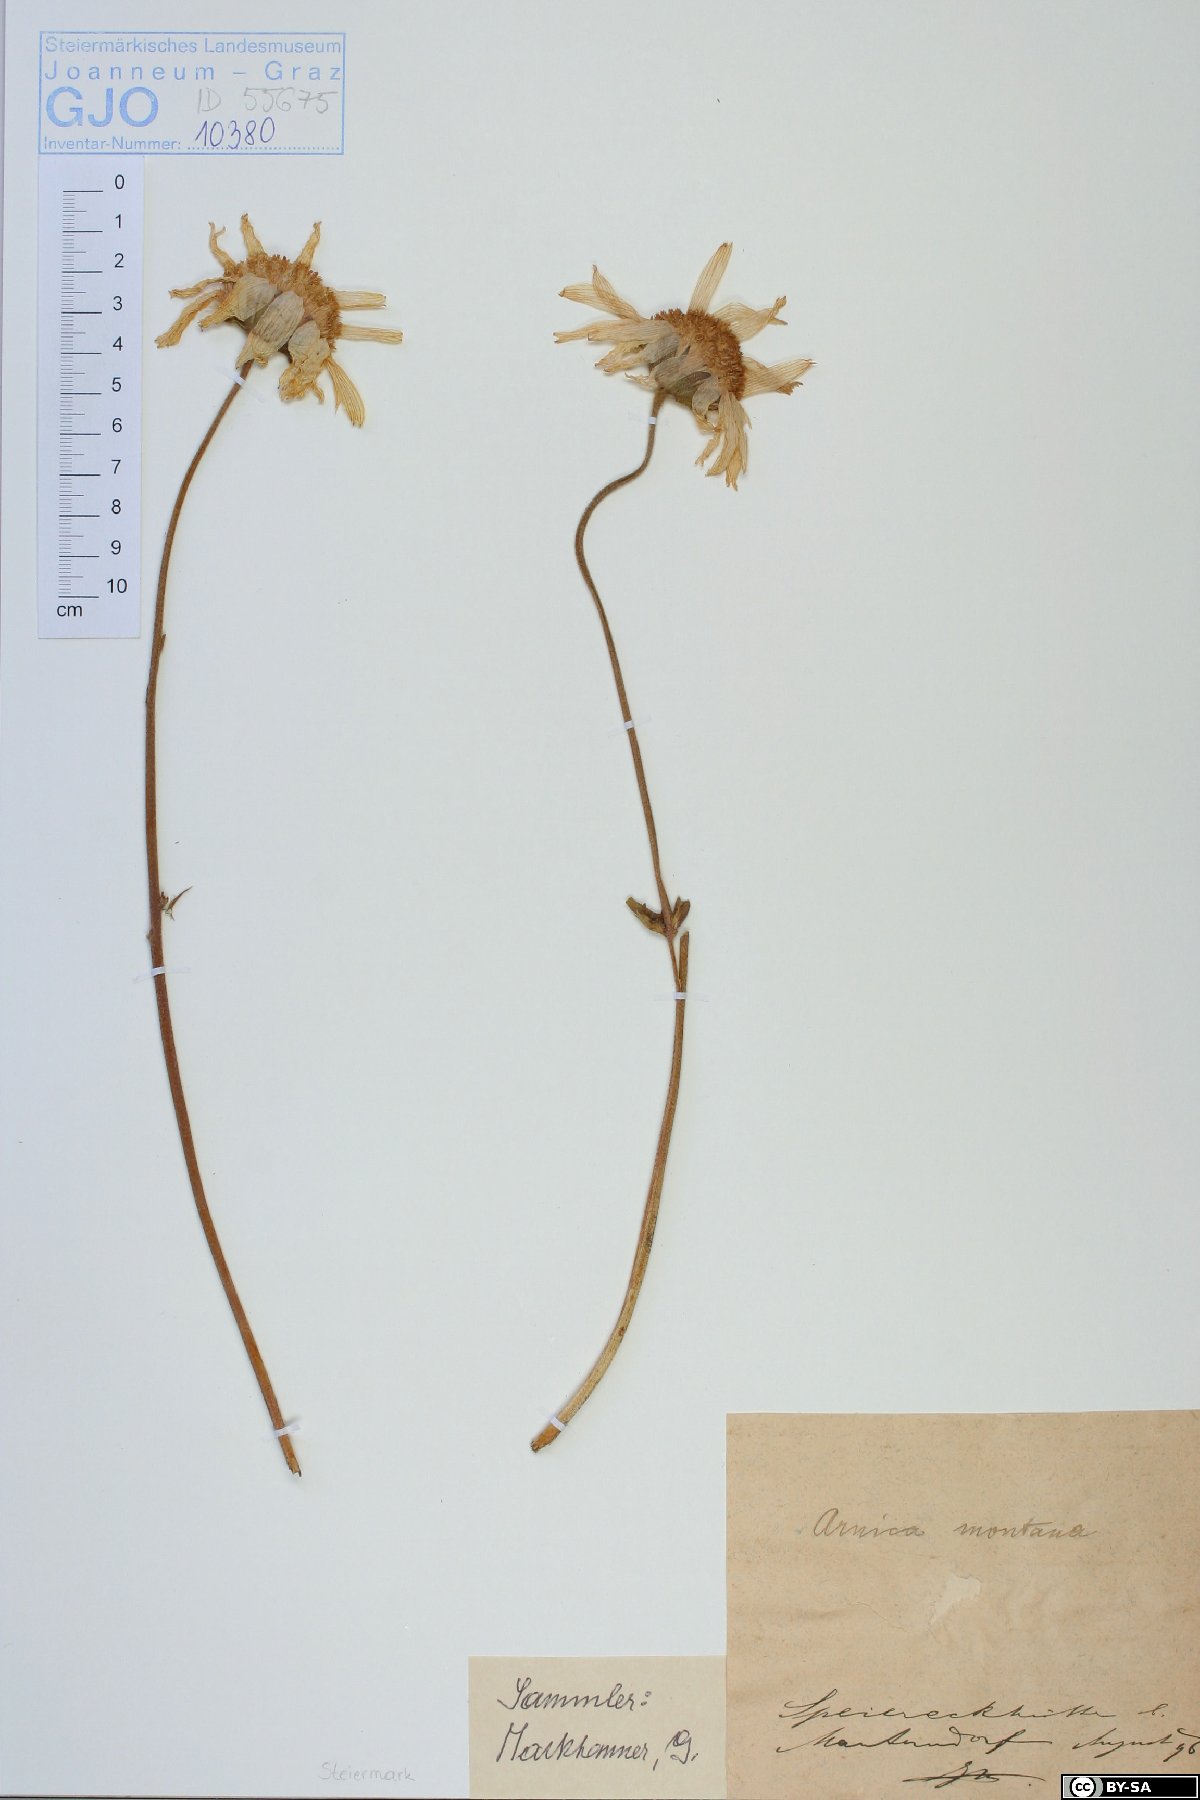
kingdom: Plantae
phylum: Tracheophyta
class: Magnoliopsida
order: Asterales
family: Asteraceae
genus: Arnica
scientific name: Arnica montana
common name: Leopard's bane
